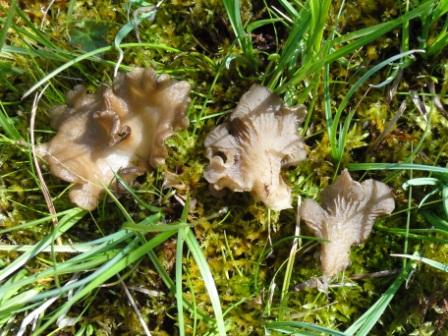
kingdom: Fungi
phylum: Basidiomycota
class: Agaricomycetes
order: Agaricales
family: Hygrophoraceae
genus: Arrhenia
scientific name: Arrhenia lobata
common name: siddende fontænehat
